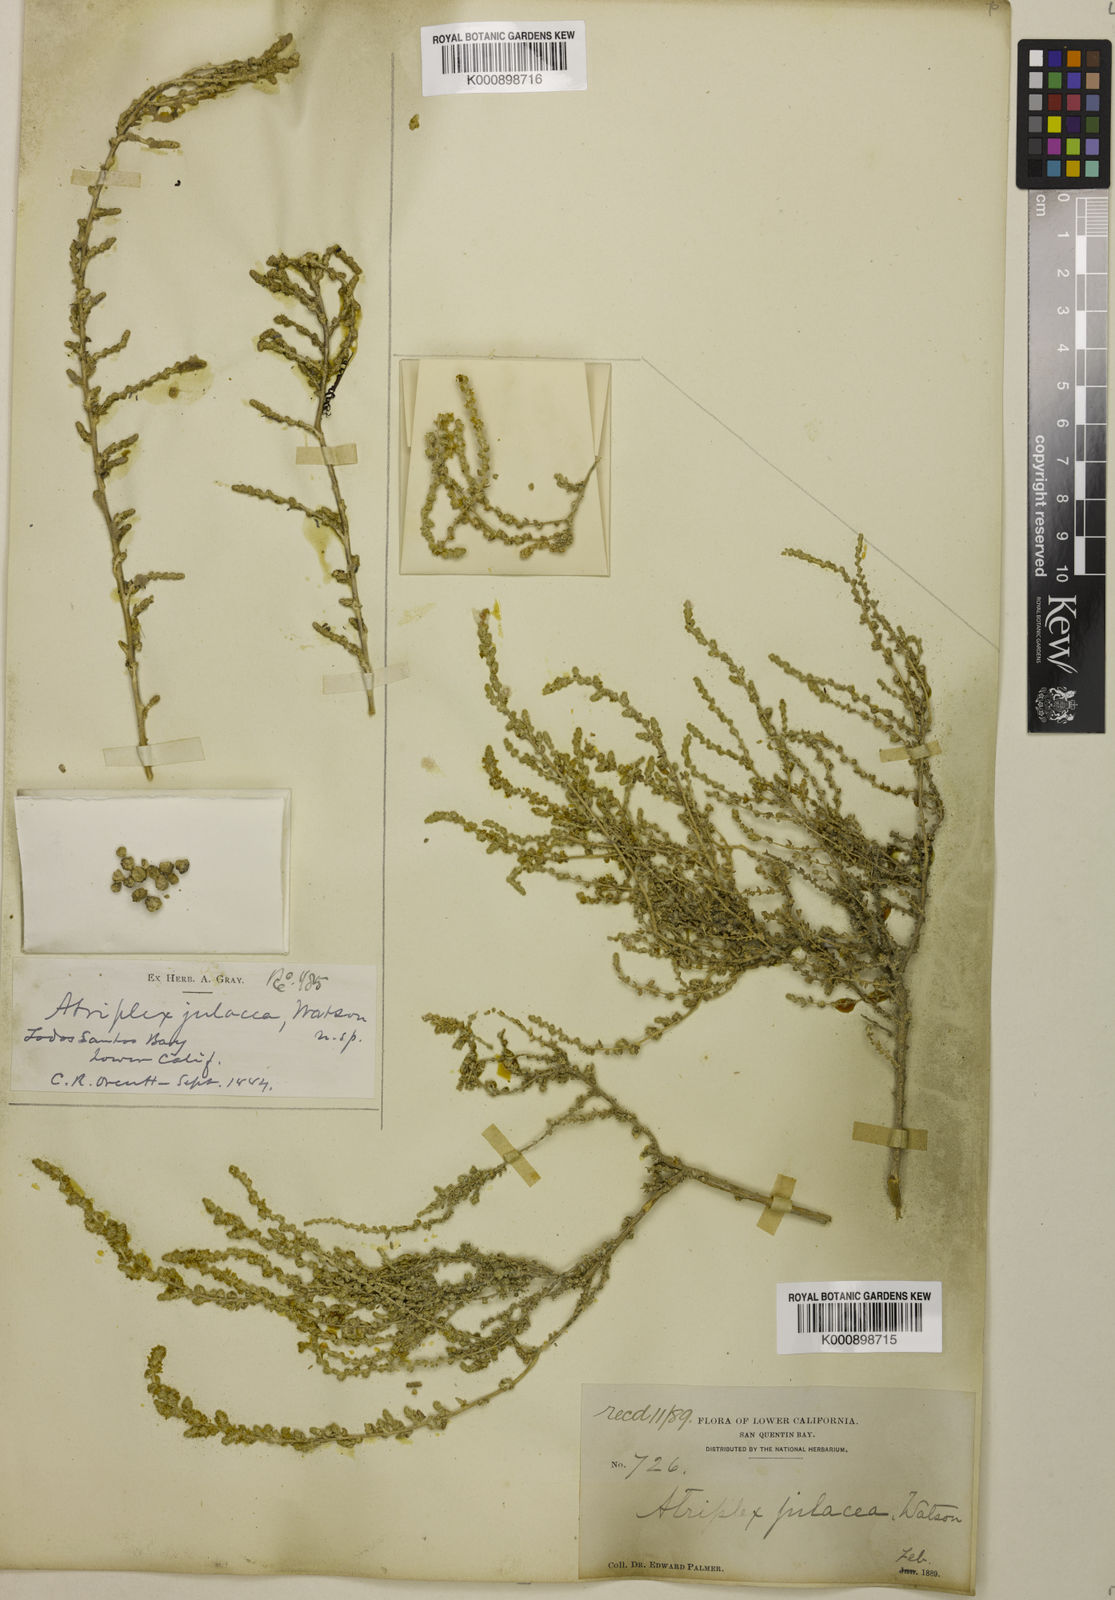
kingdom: Plantae
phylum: Tracheophyta
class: Magnoliopsida
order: Caryophyllales
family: Amaranthaceae
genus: Atriplex
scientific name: Atriplex julacea
